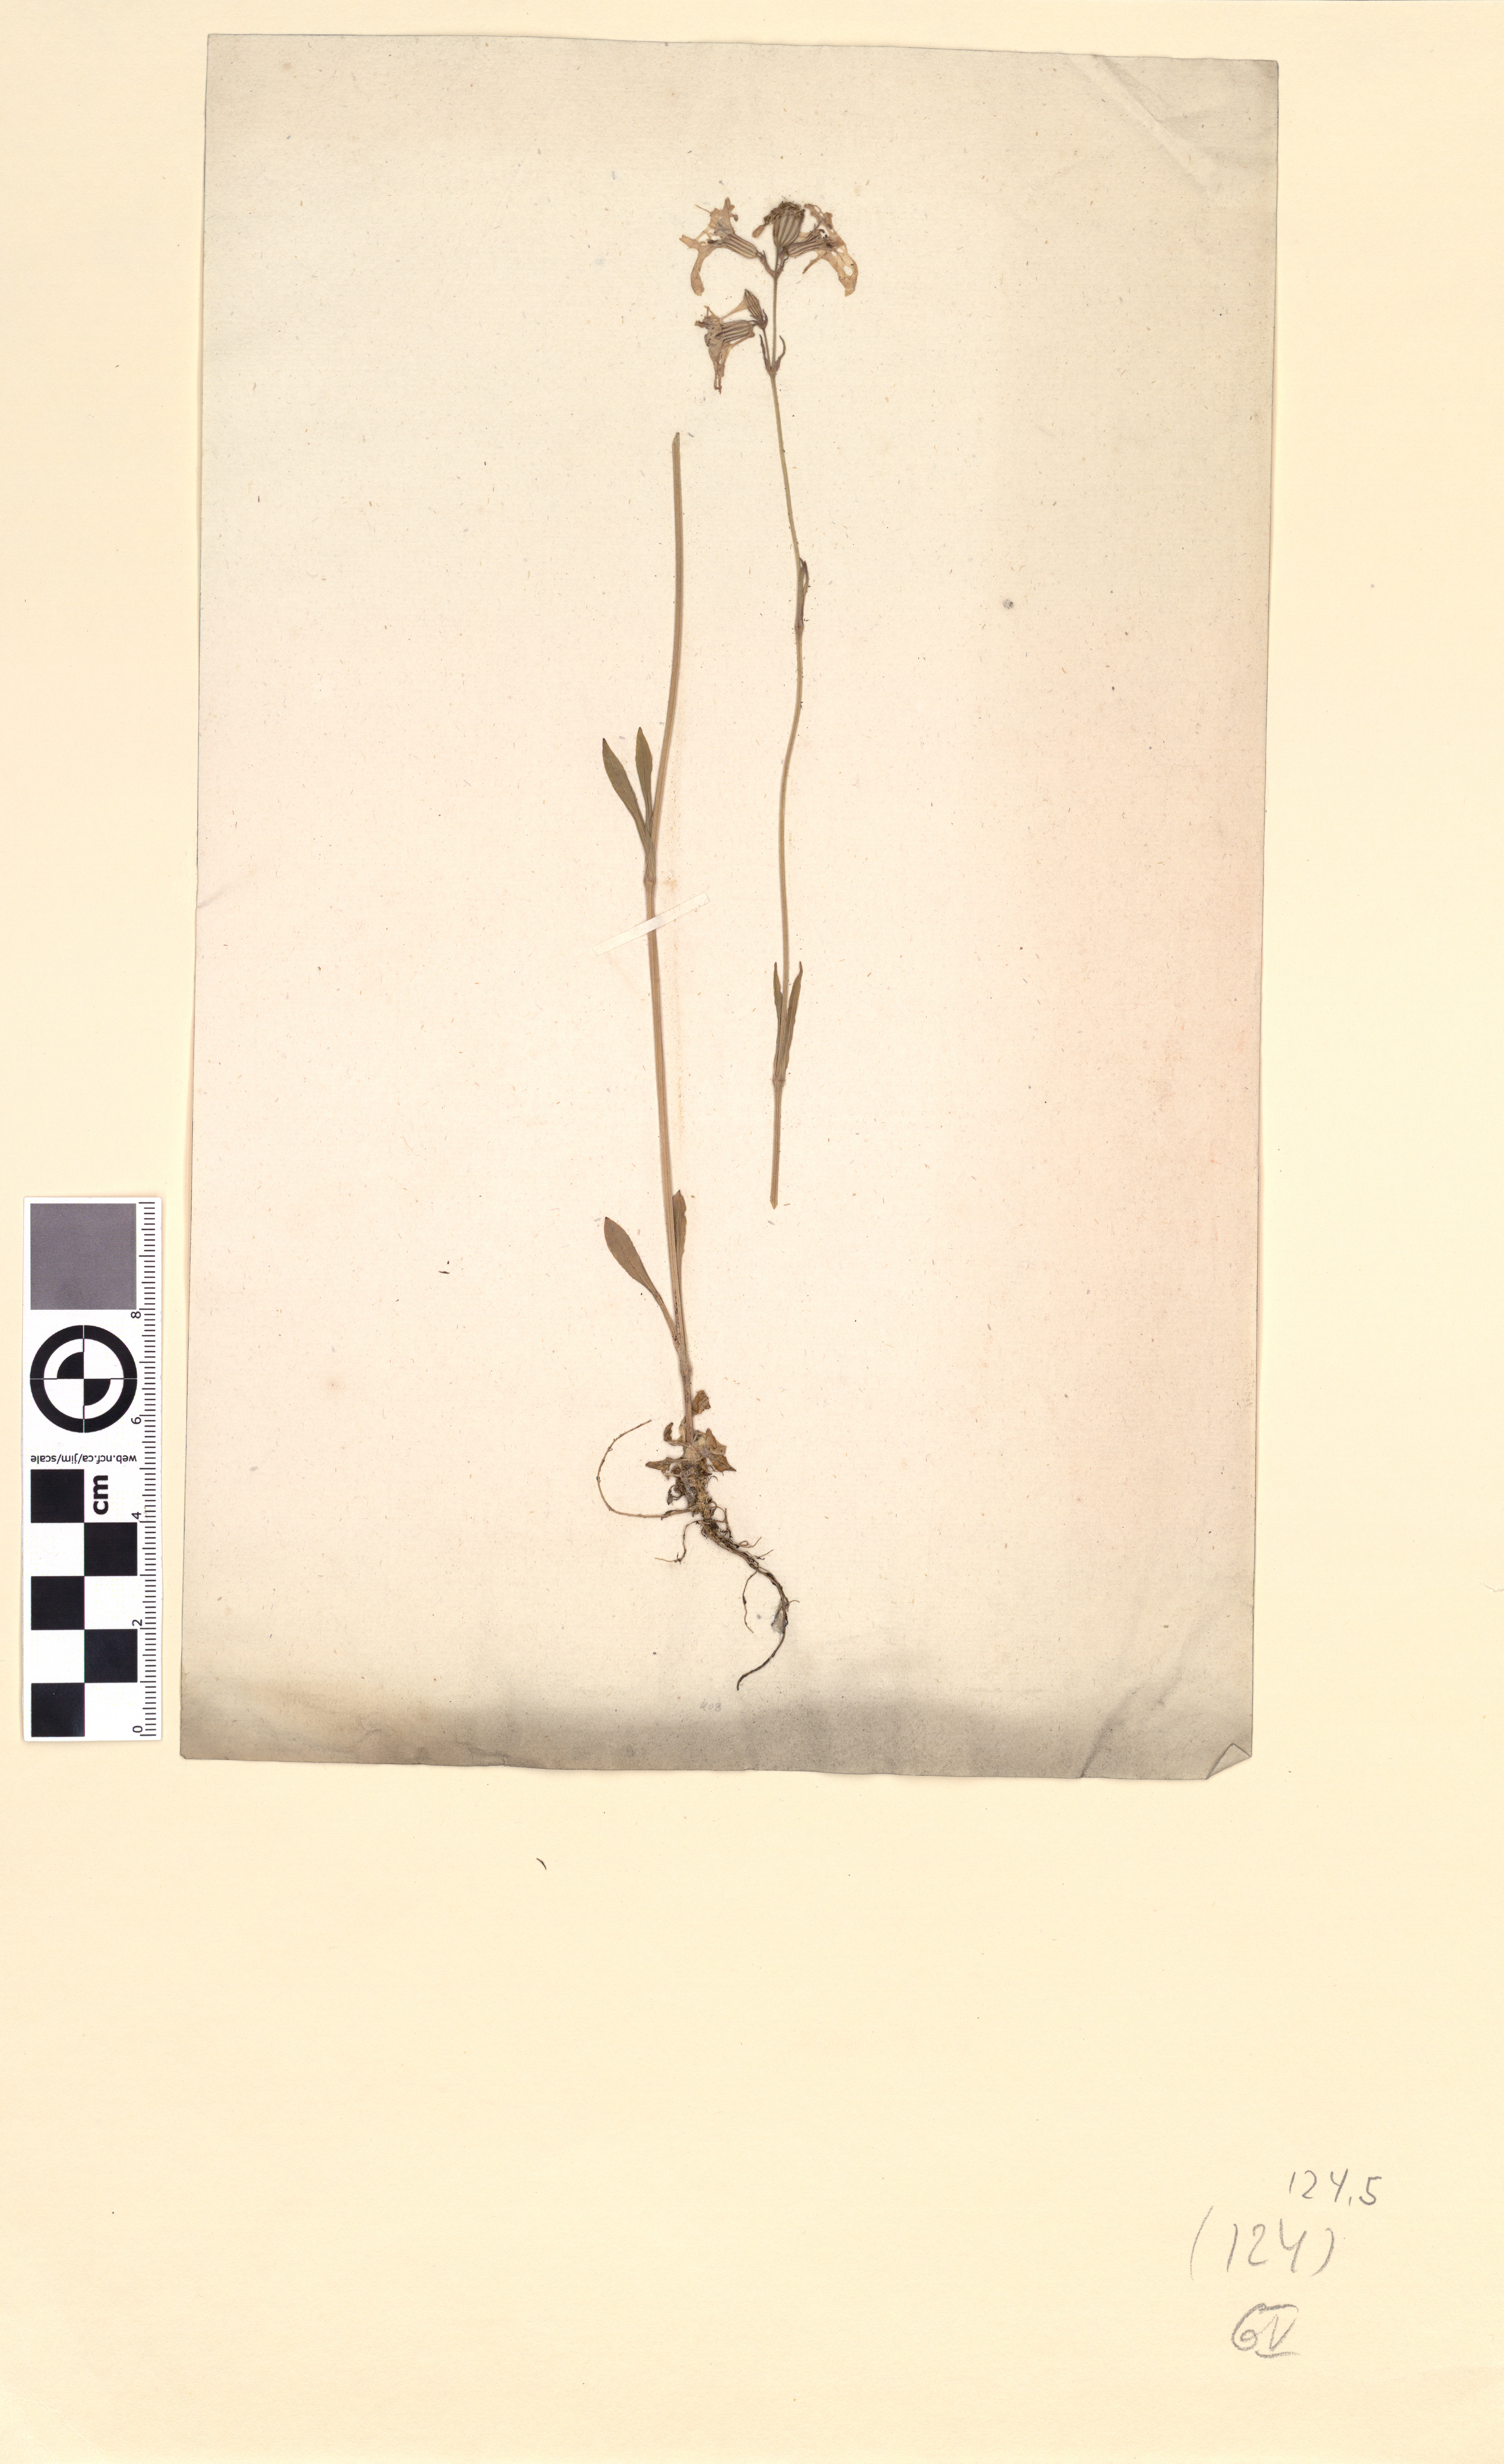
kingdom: Plantae
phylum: Tracheophyta
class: Magnoliopsida
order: Caryophyllales
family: Caryophyllaceae
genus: Silene
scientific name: Silene flos-cuculi
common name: Ragged-robin
